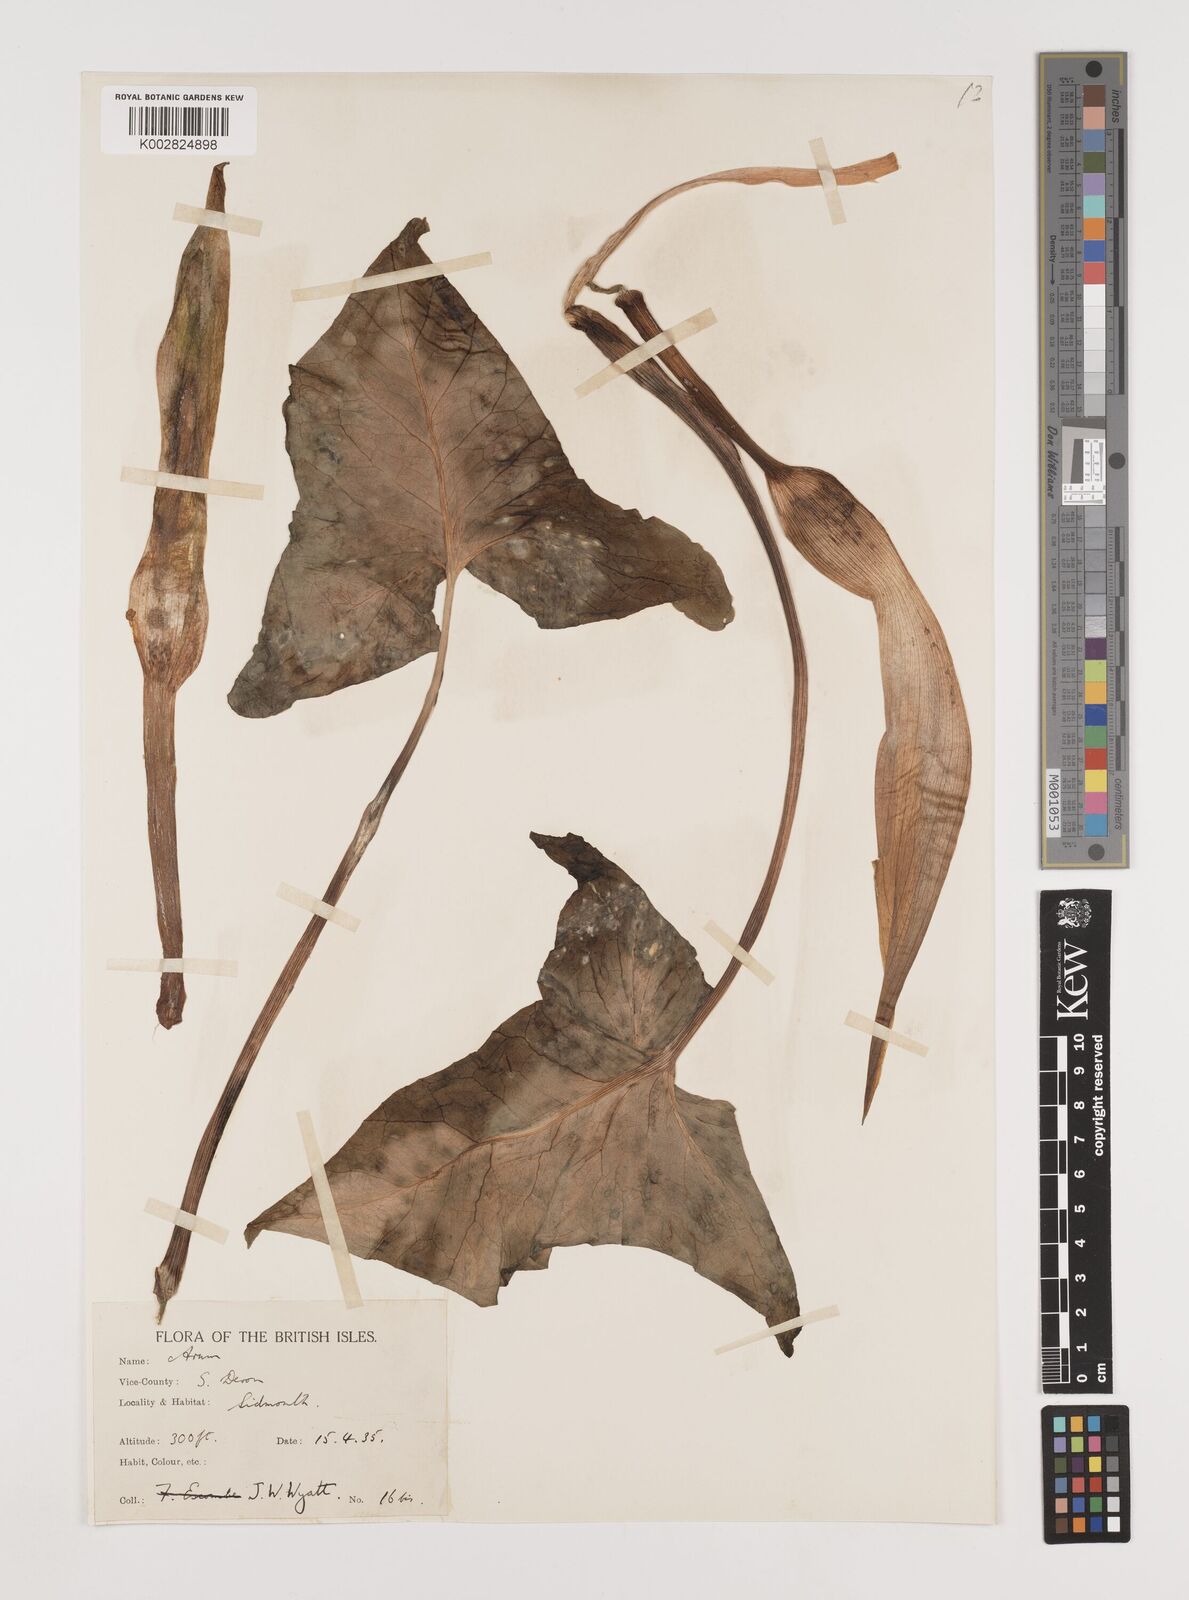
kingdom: Plantae
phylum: Tracheophyta
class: Liliopsida
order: Alismatales
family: Araceae
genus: Arum
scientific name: Arum italicum
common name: Italian lords-and-ladies
